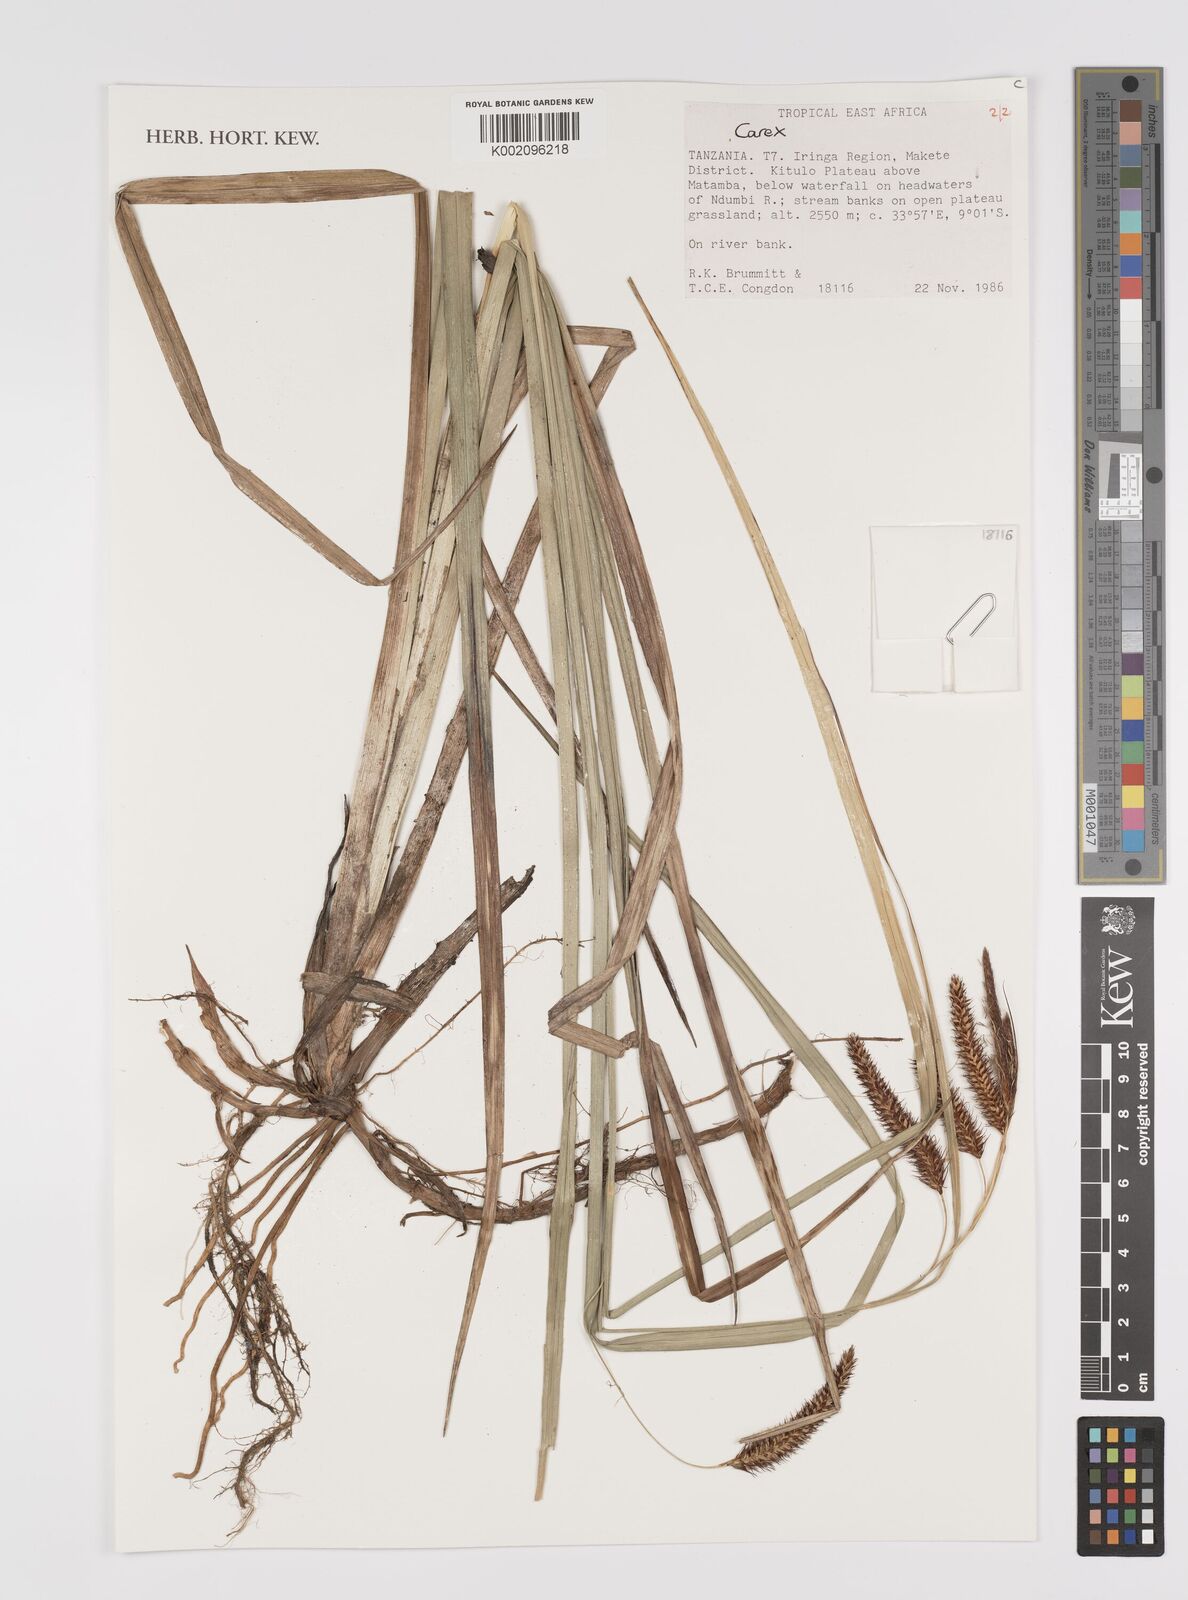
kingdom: Plantae
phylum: Tracheophyta
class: Liliopsida
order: Poales
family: Cyperaceae
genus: Carex
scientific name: Carex
